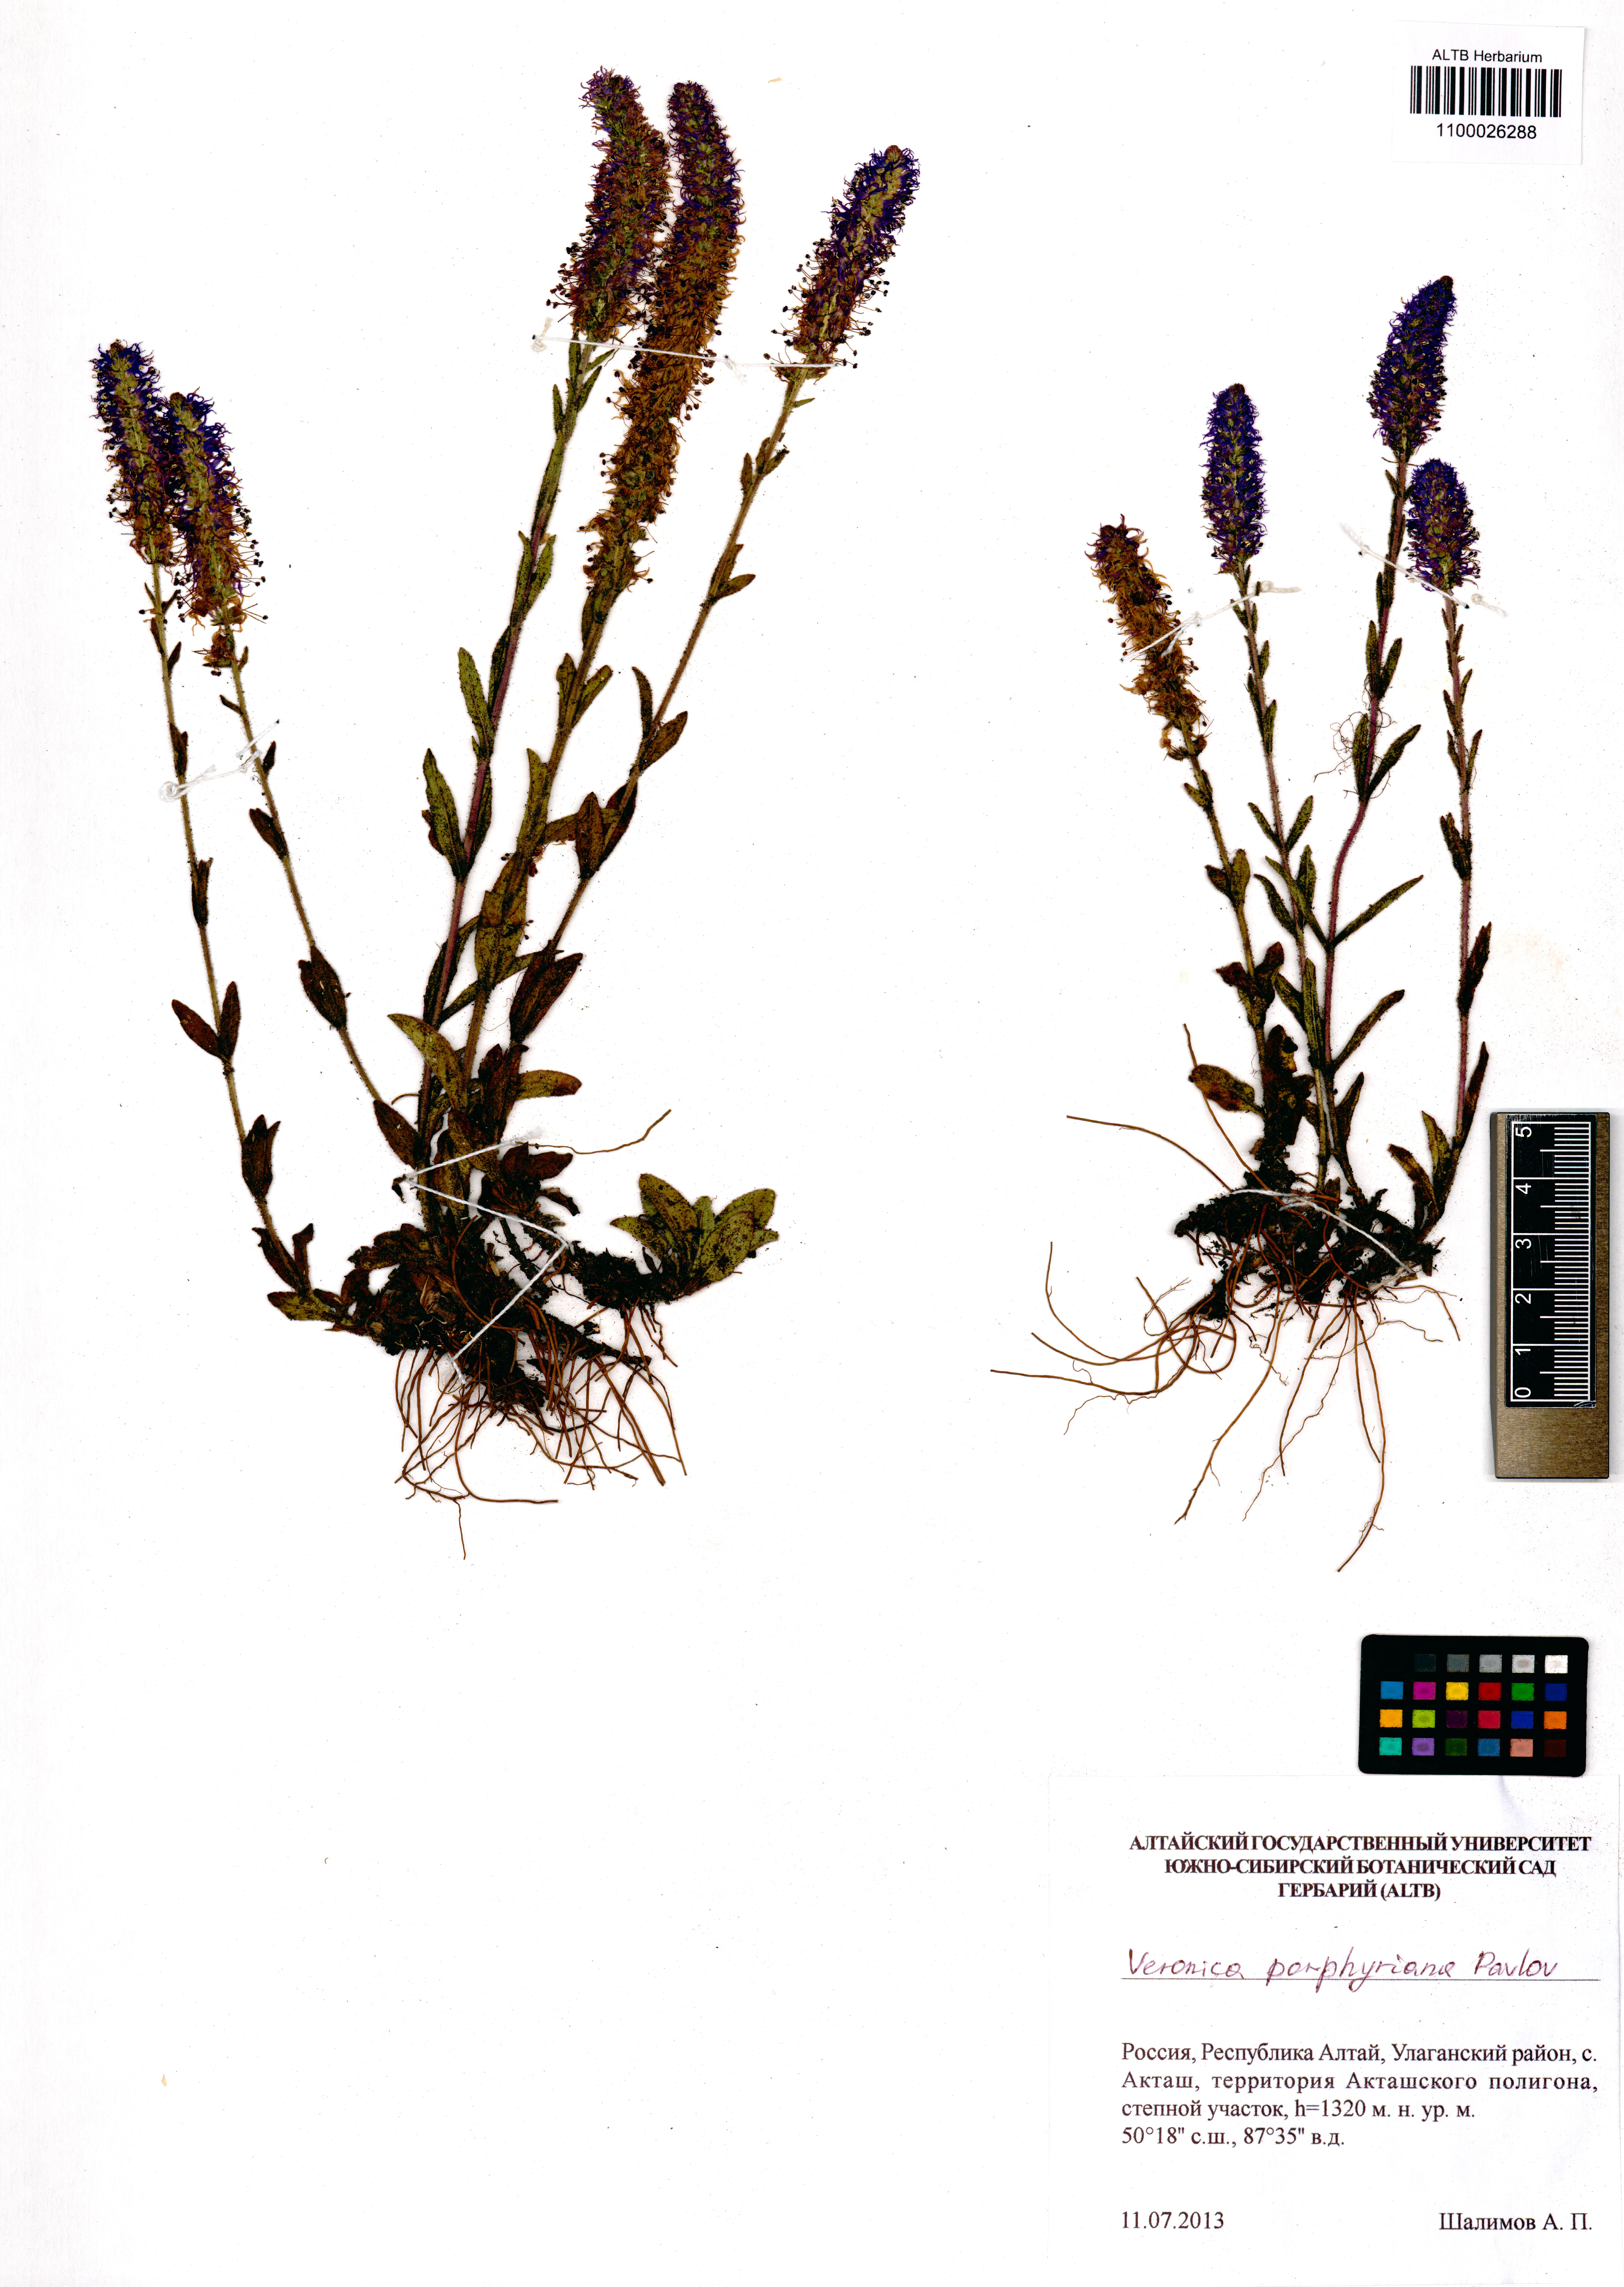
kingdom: Plantae
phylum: Tracheophyta
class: Magnoliopsida
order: Lamiales
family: Plantaginaceae
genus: Veronica
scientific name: Veronica porphyriana
